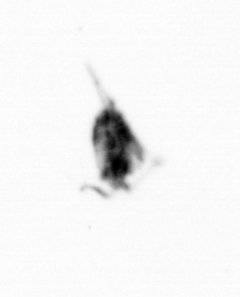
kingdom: Animalia
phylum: Arthropoda
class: Copepoda
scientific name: Copepoda
